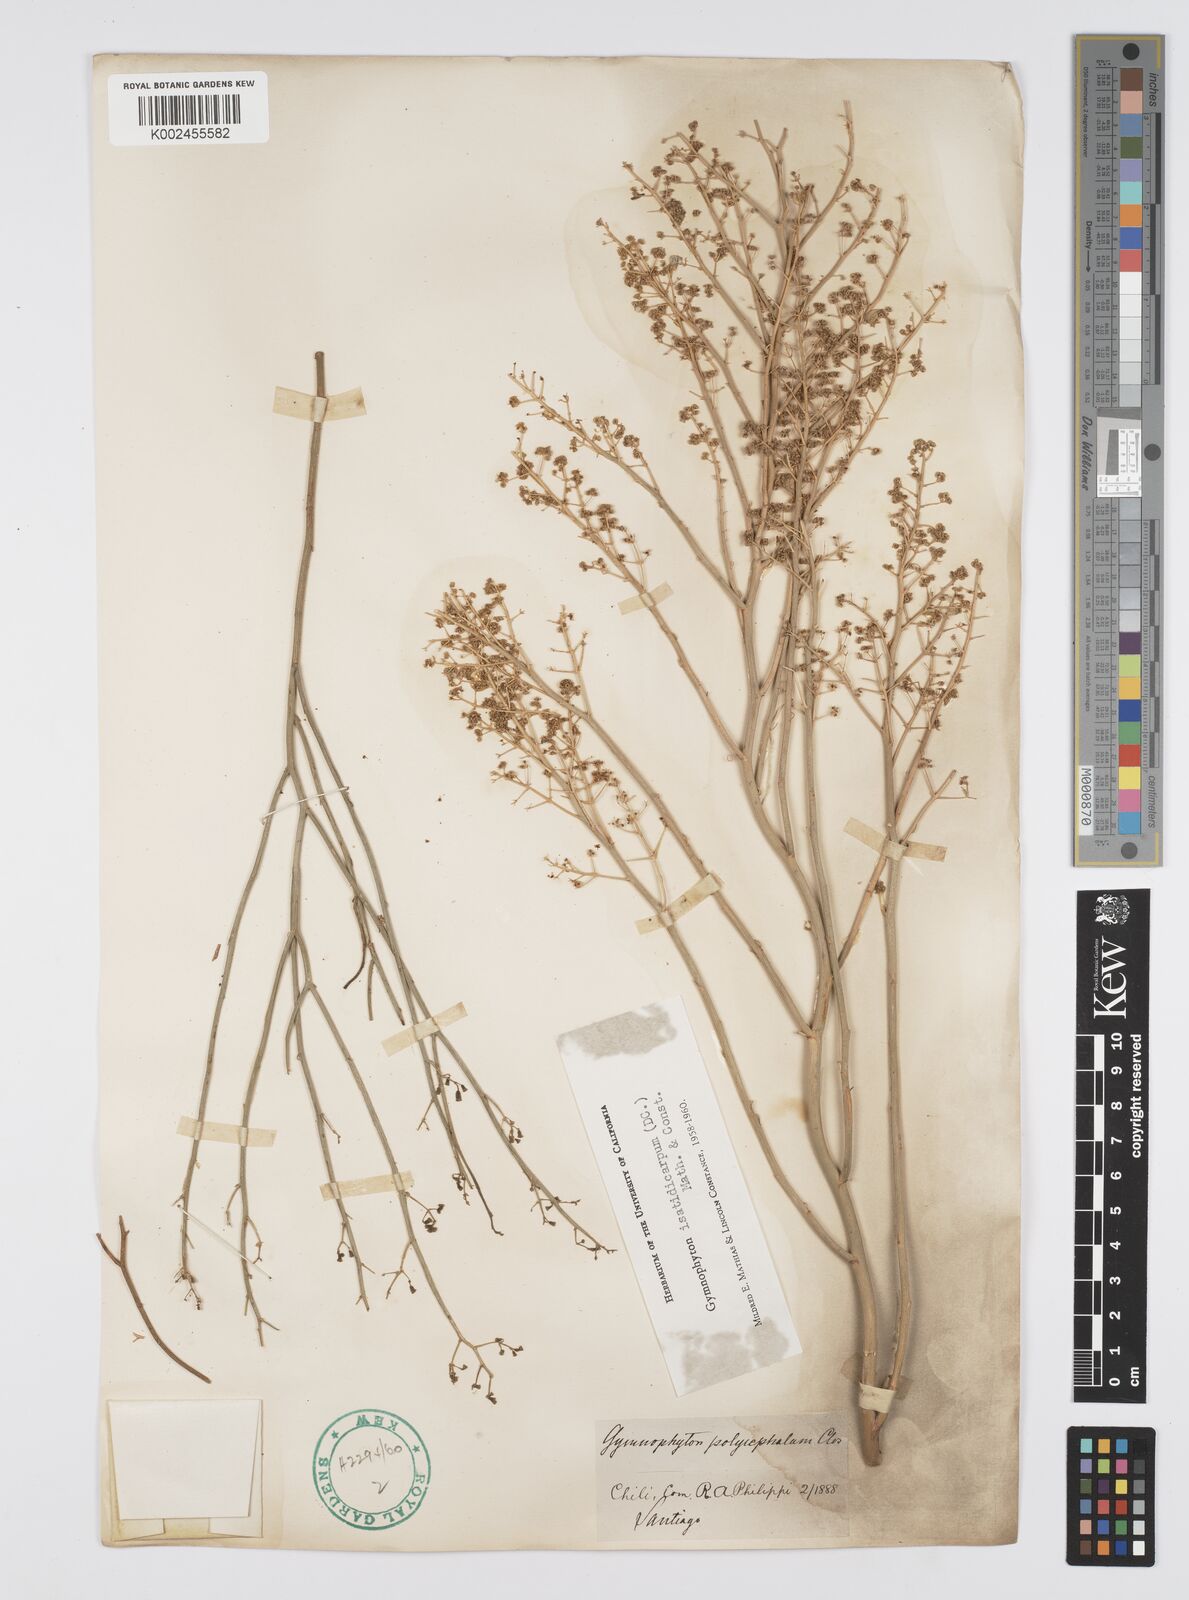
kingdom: Plantae
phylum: Tracheophyta
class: Magnoliopsida
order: Apiales
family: Apiaceae
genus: Gymnophyton
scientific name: Gymnophyton isatidicarpum
